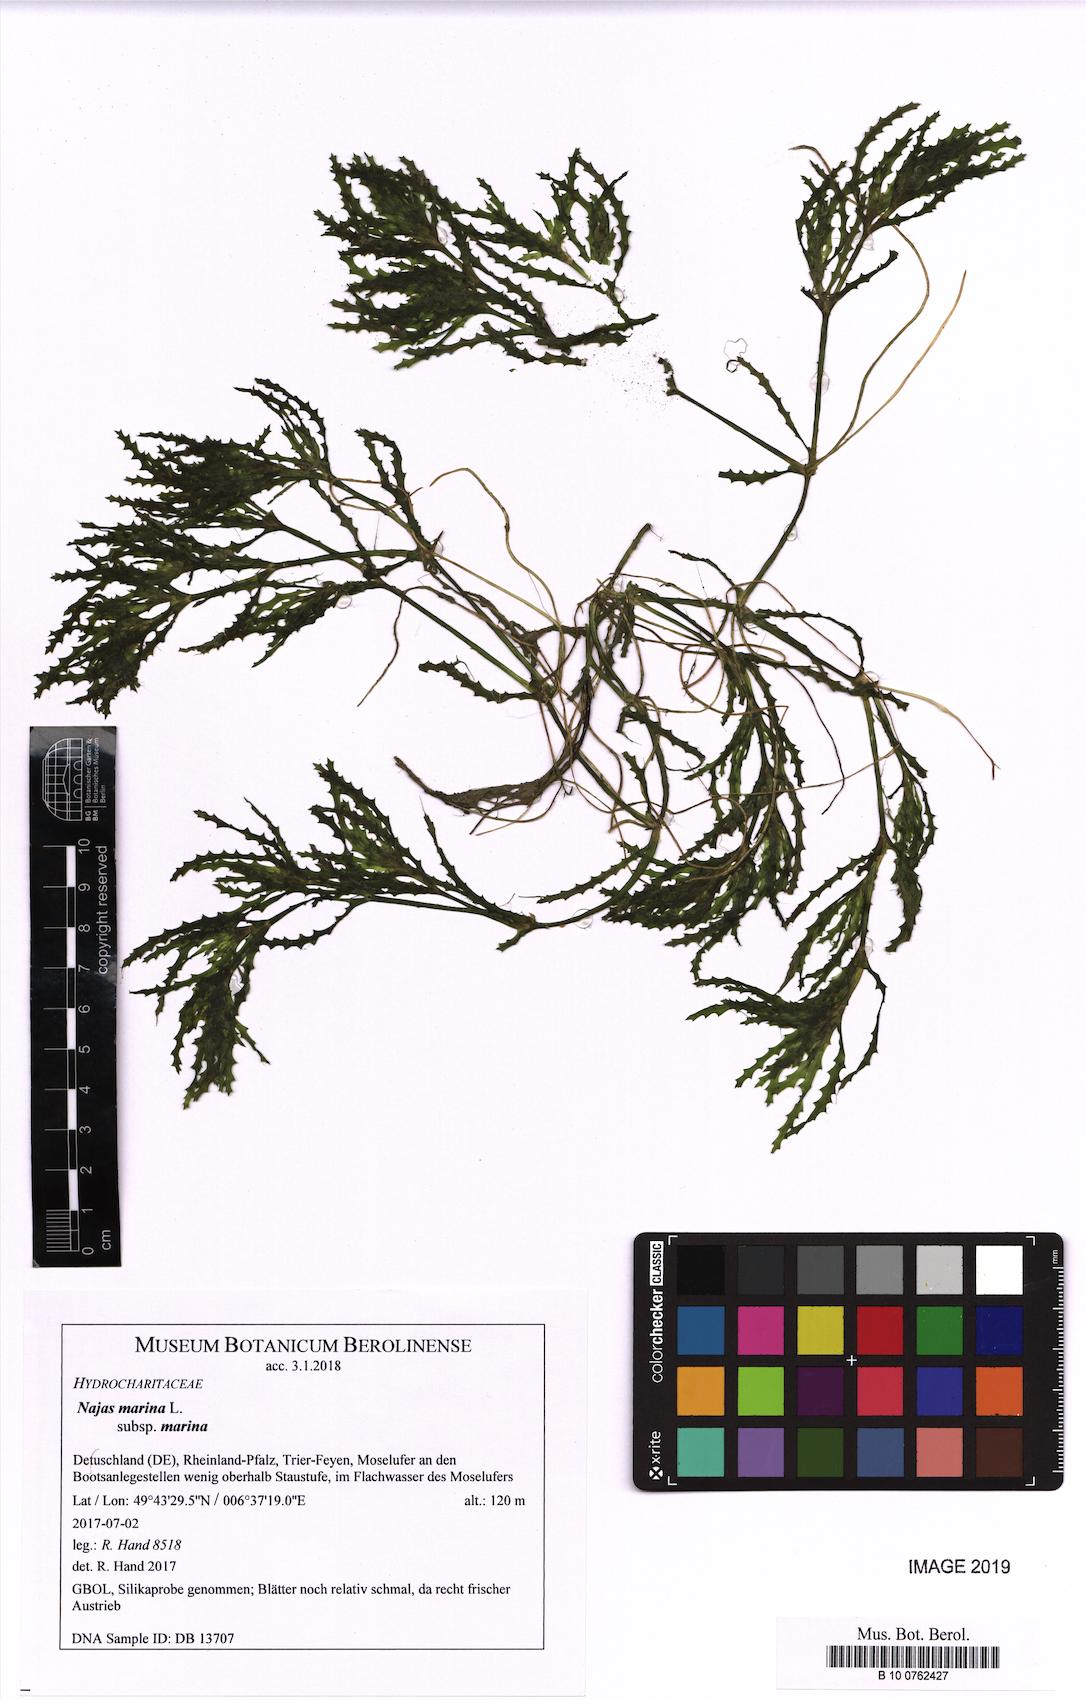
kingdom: Plantae
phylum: Tracheophyta
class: Liliopsida
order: Alismatales
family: Hydrocharitaceae
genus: Najas
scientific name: Najas marina
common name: Holly-leaved naiad
